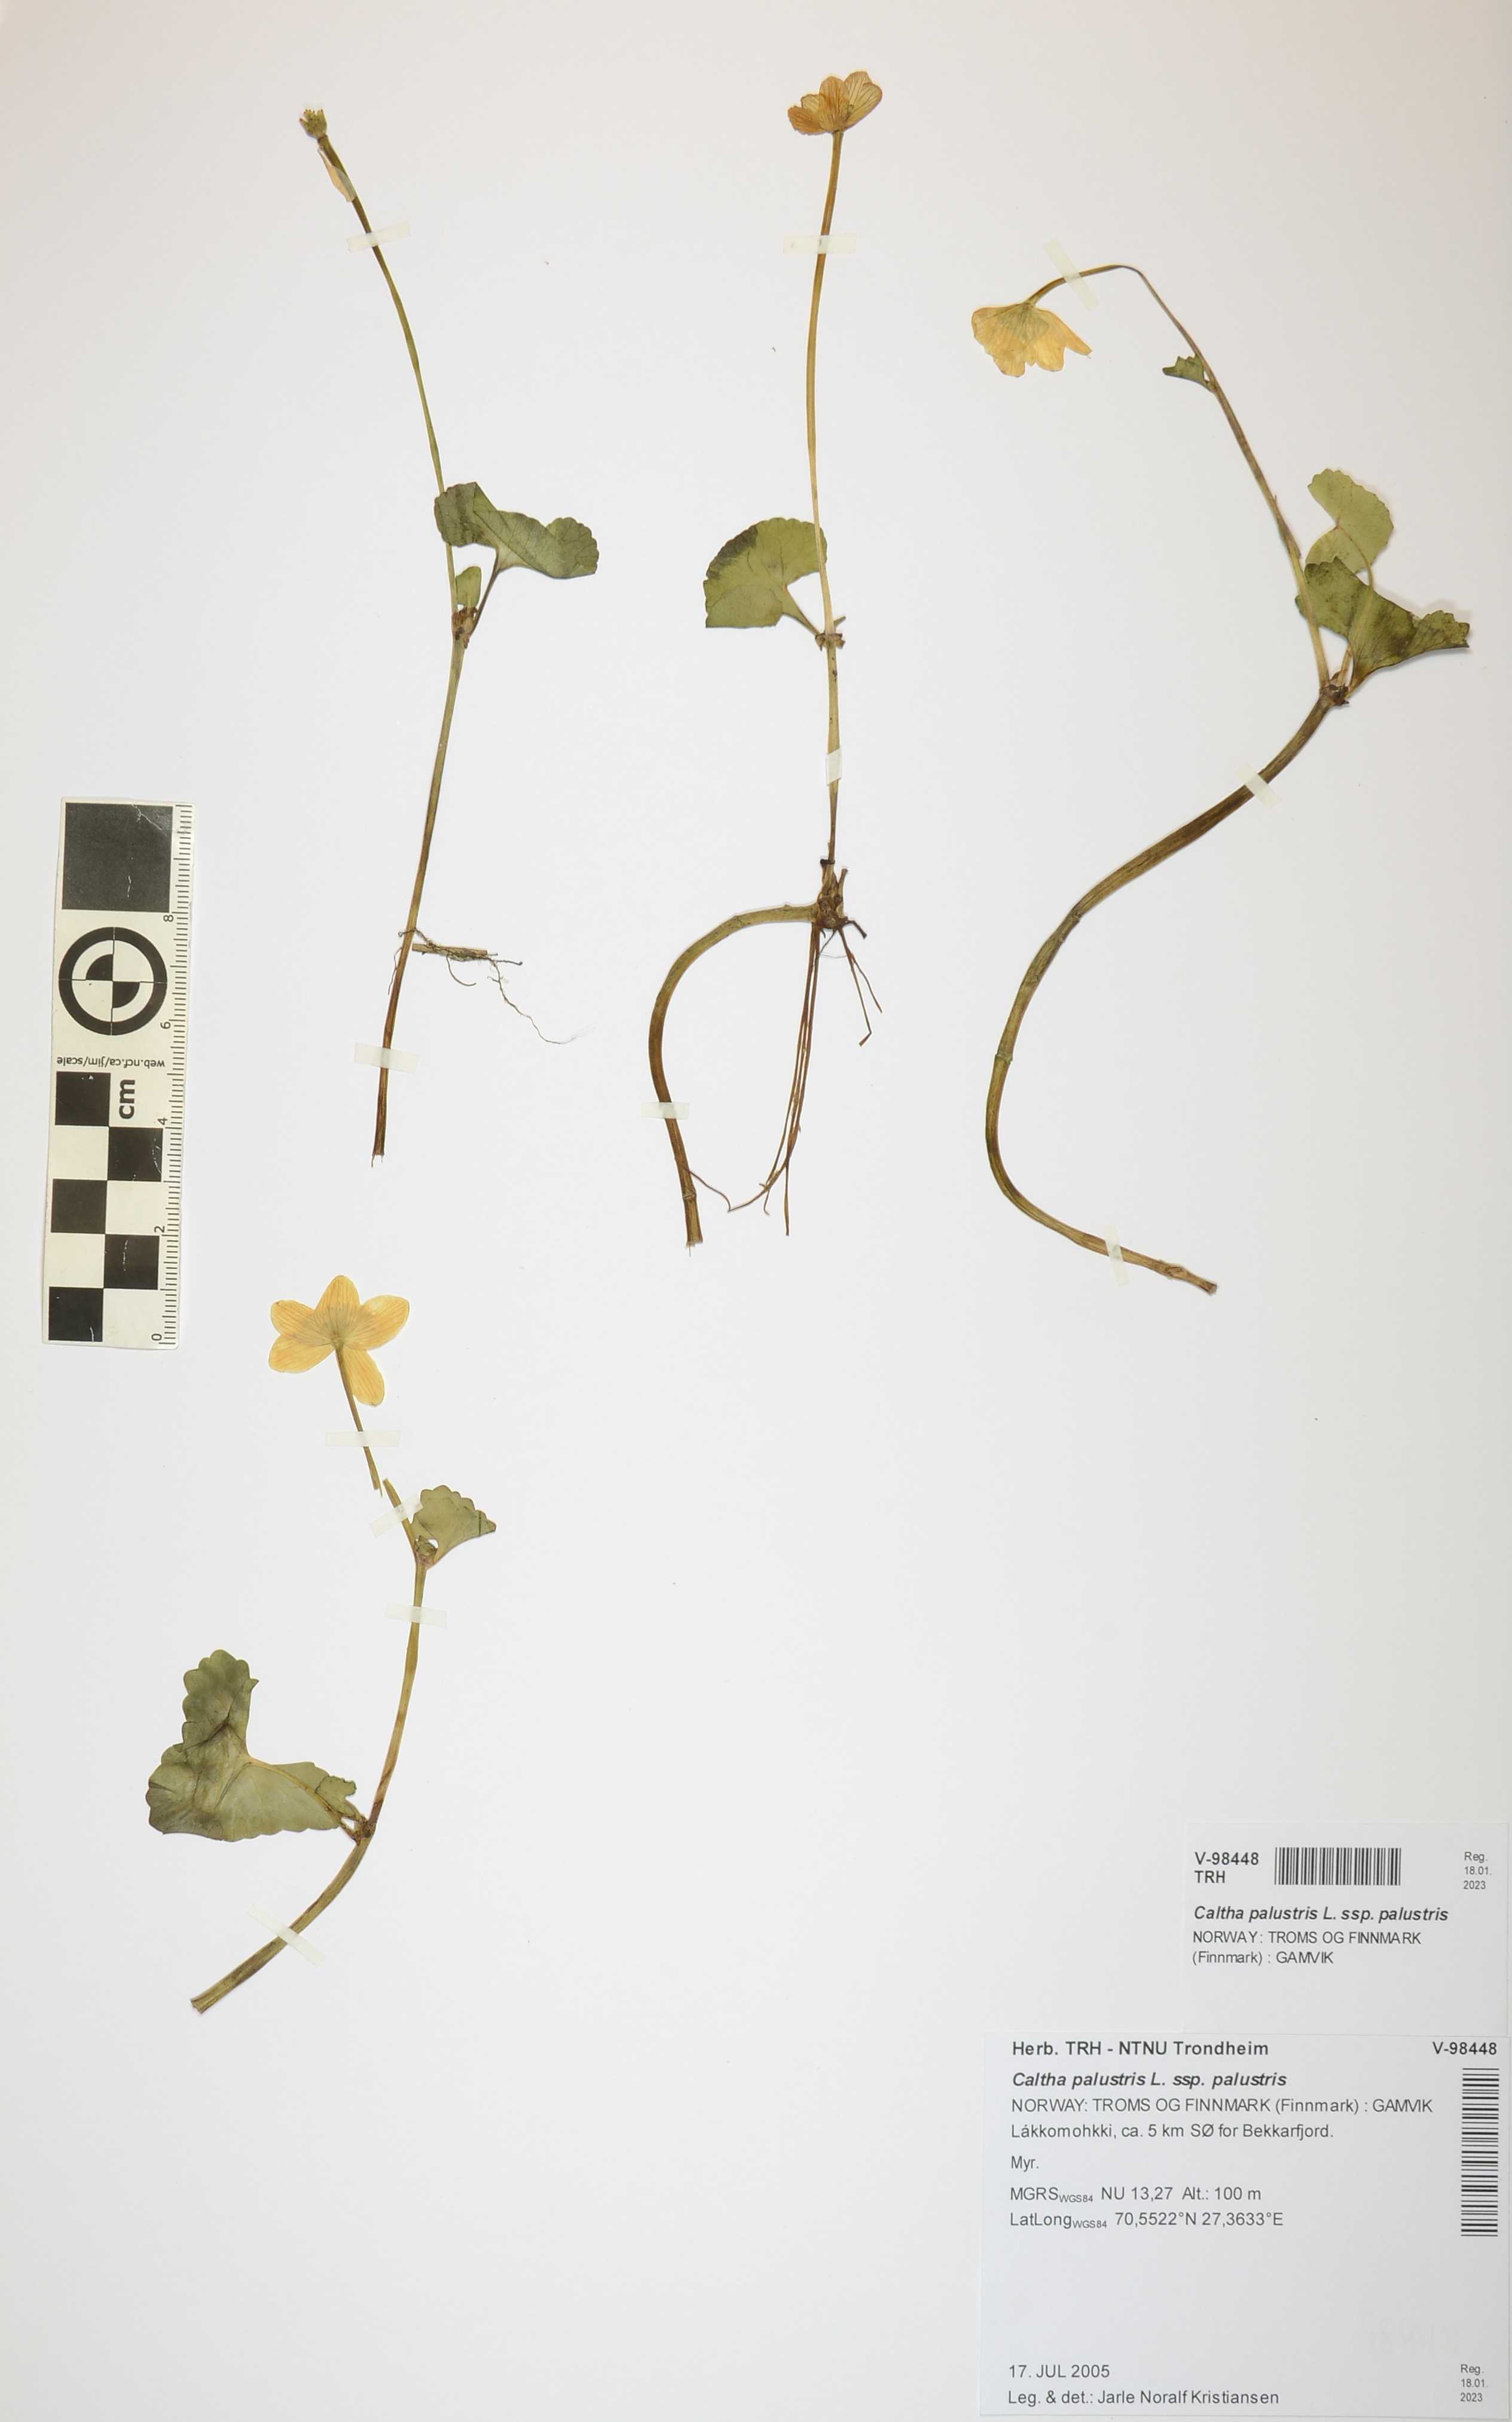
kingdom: Plantae
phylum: Tracheophyta
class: Magnoliopsida
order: Ranunculales
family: Ranunculaceae
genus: Caltha
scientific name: Caltha palustris
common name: Marsh marigold
